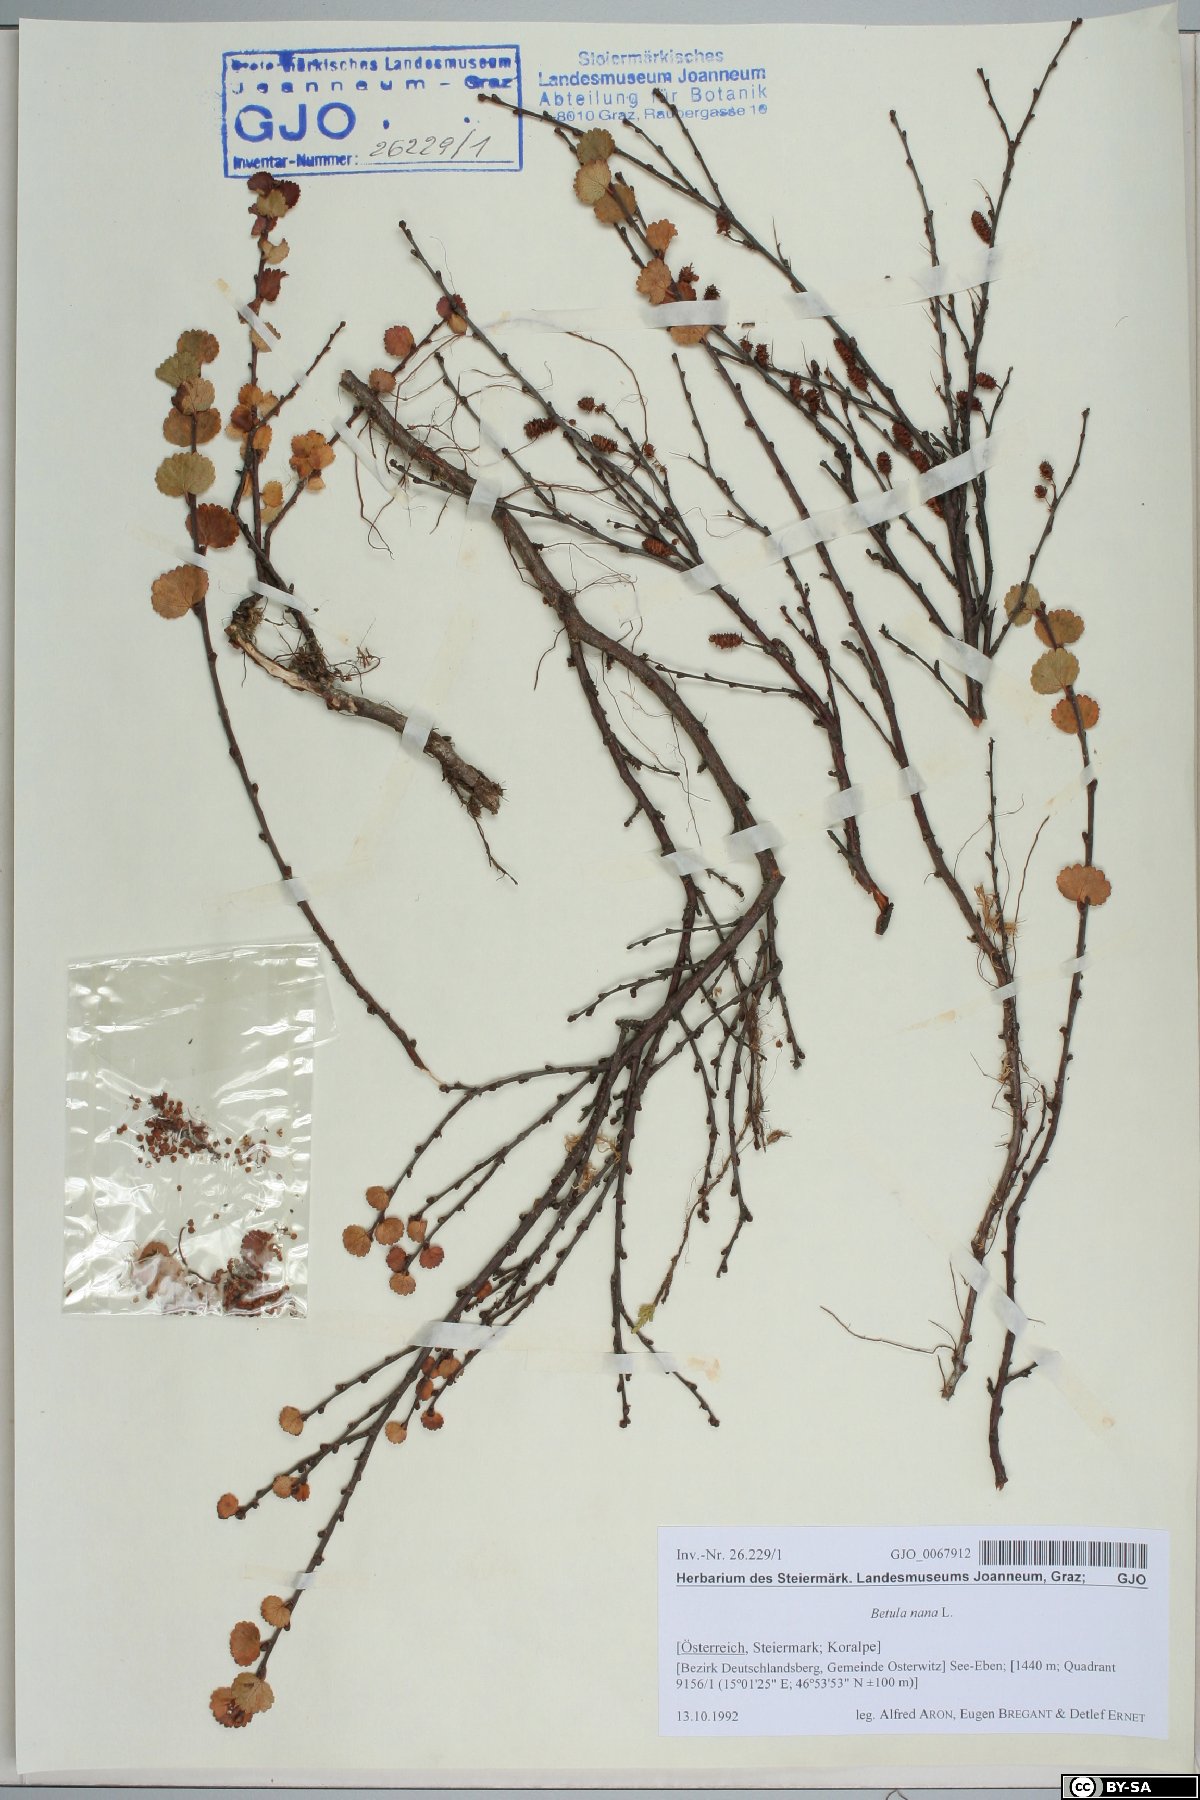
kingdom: Plantae
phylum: Tracheophyta
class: Magnoliopsida
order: Fagales
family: Betulaceae
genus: Betula
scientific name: Betula nana
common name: Arctic dwarf birch
